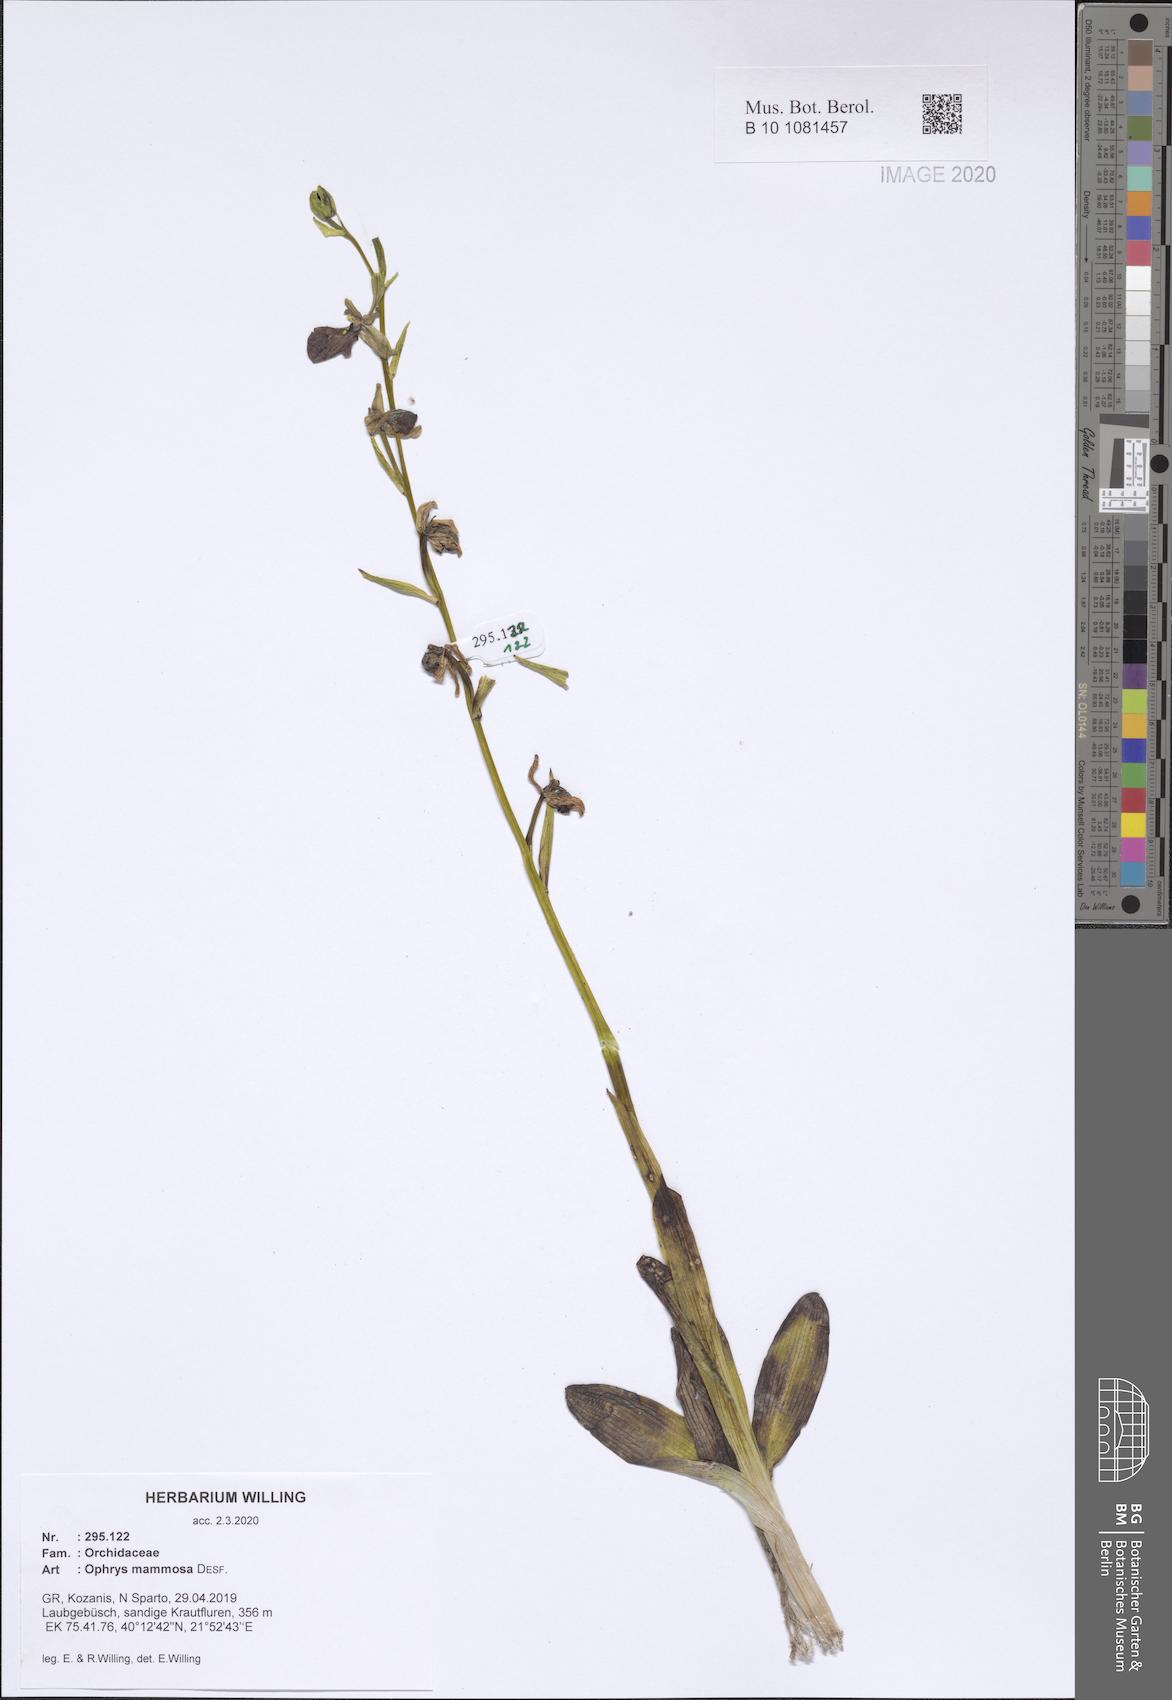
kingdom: Plantae
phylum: Tracheophyta
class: Liliopsida
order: Asparagales
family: Orchidaceae
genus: Ophrys
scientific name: Ophrys sphegodes
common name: Early spider-orchid
